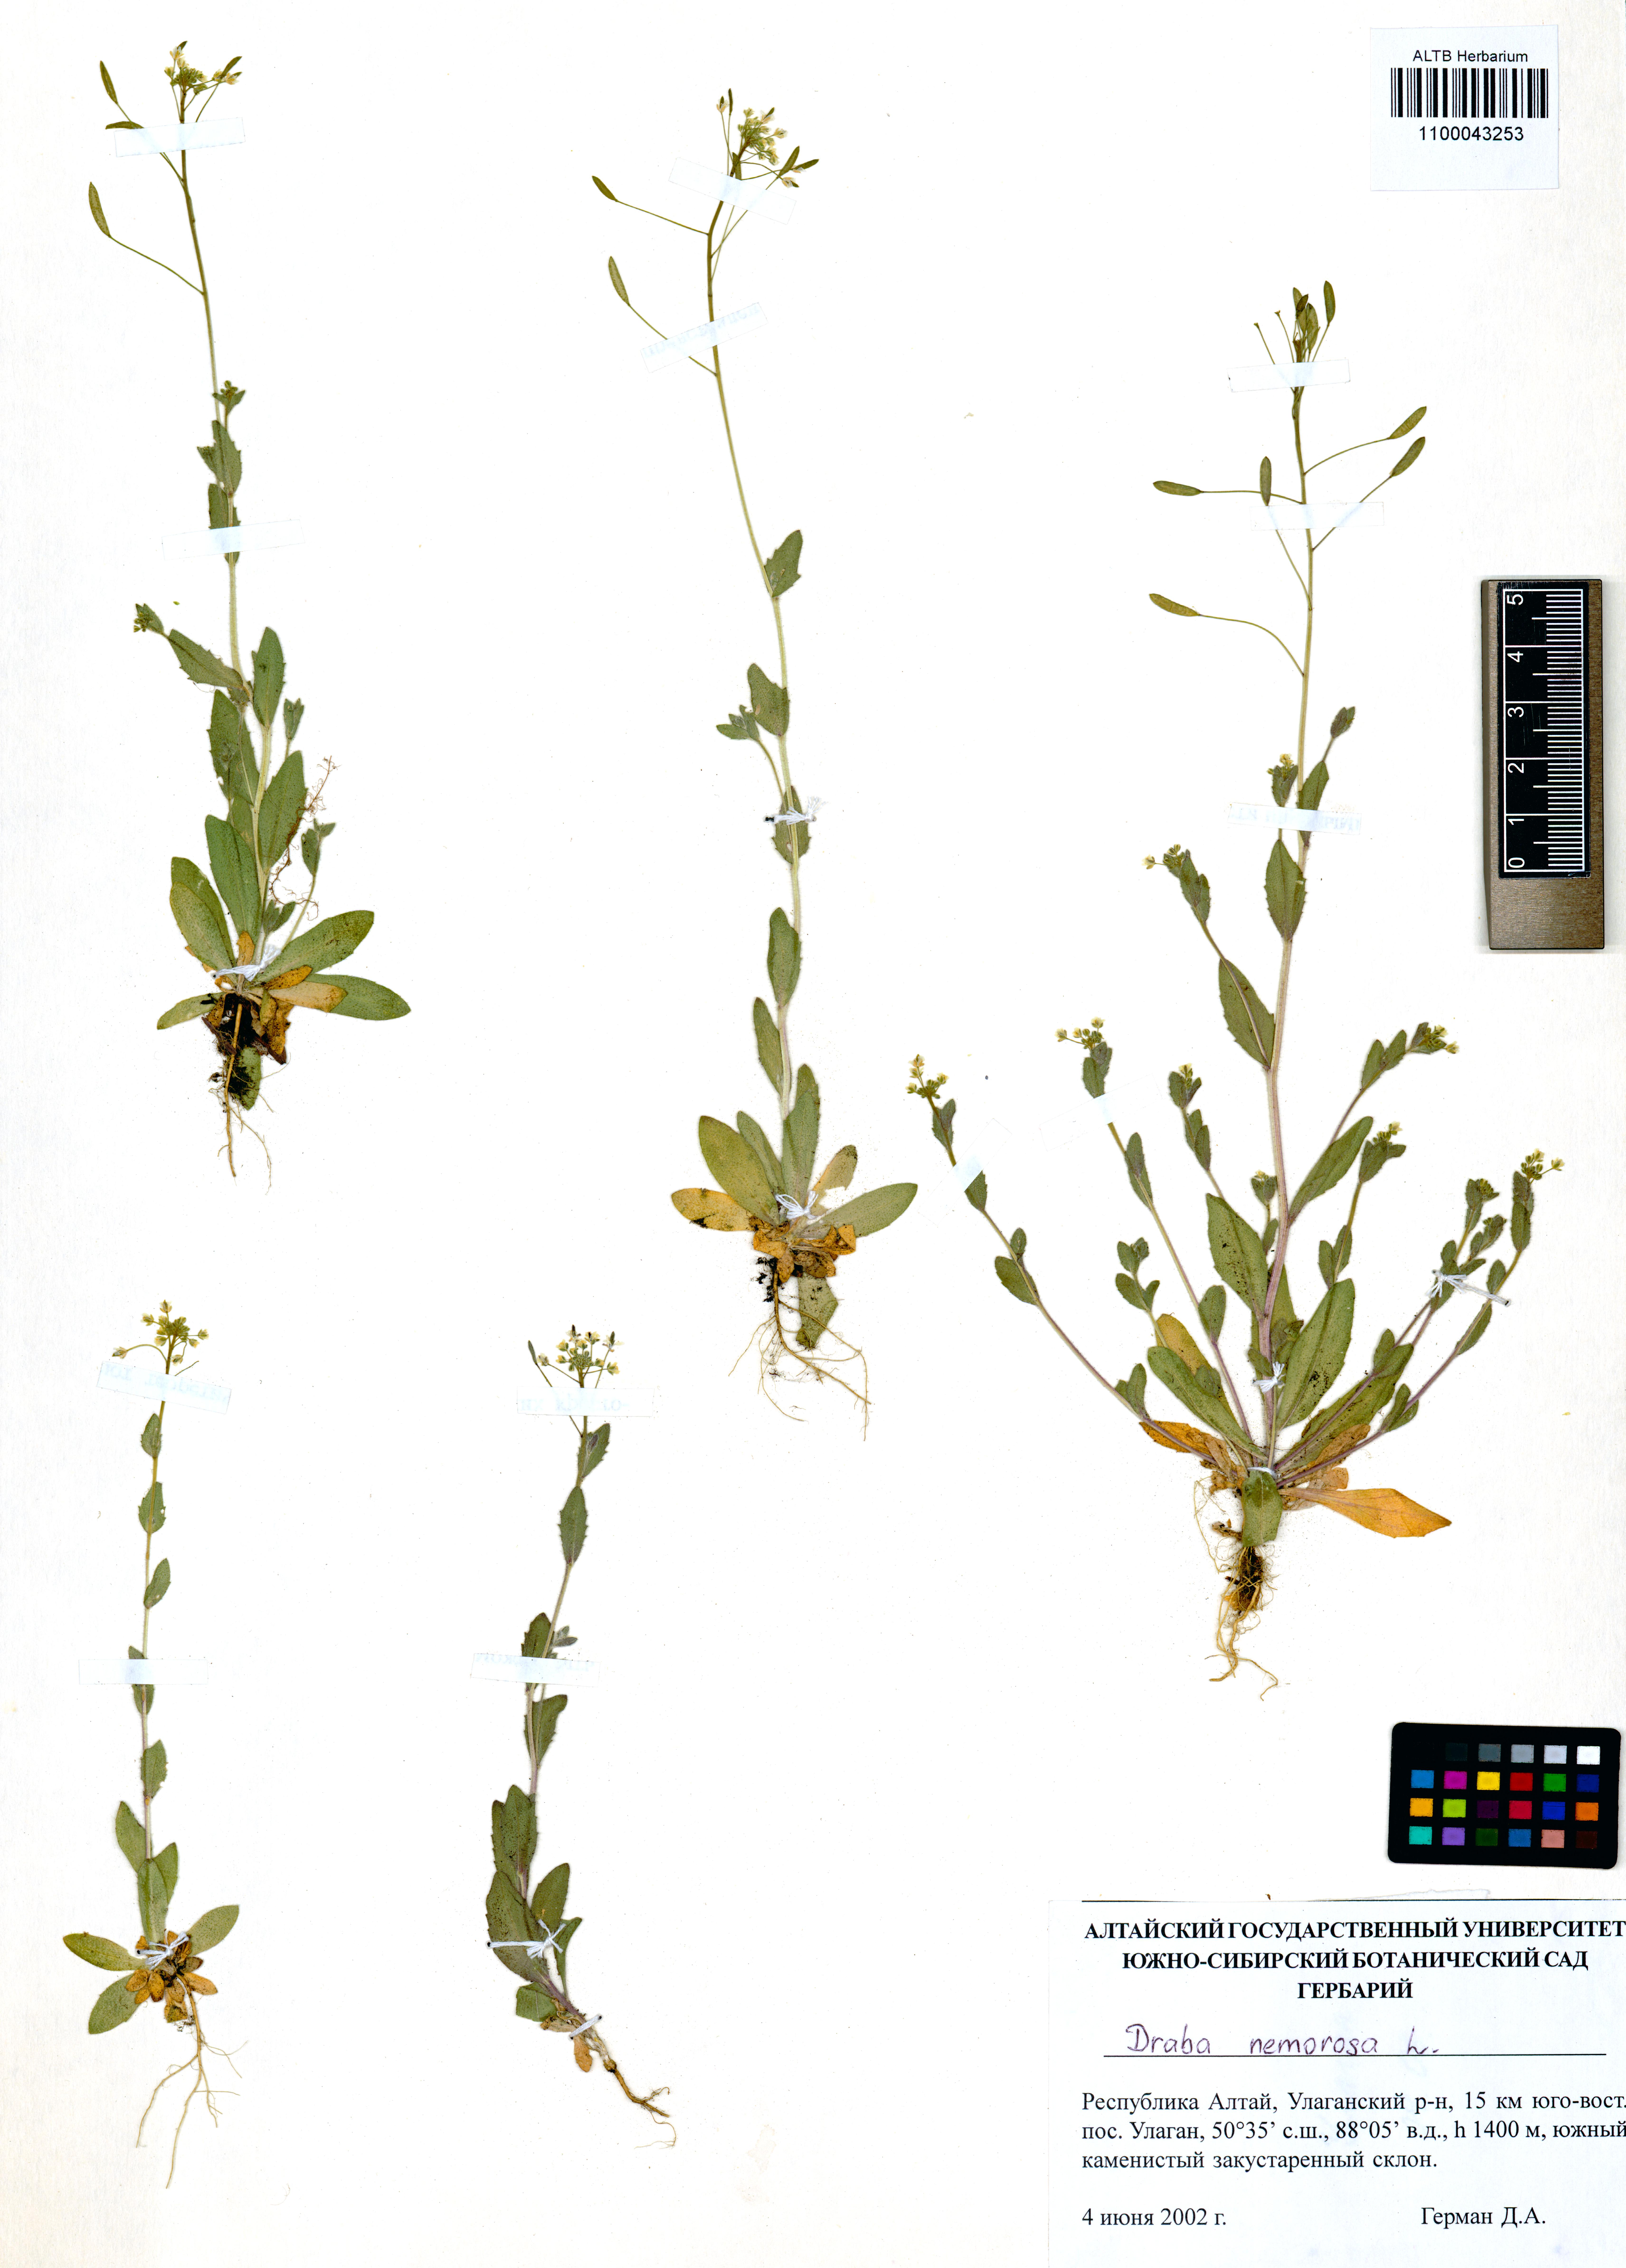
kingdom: Plantae
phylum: Tracheophyta
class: Magnoliopsida
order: Brassicales
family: Brassicaceae
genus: Draba
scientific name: Draba nemorosa
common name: Wood whitlow-grass
